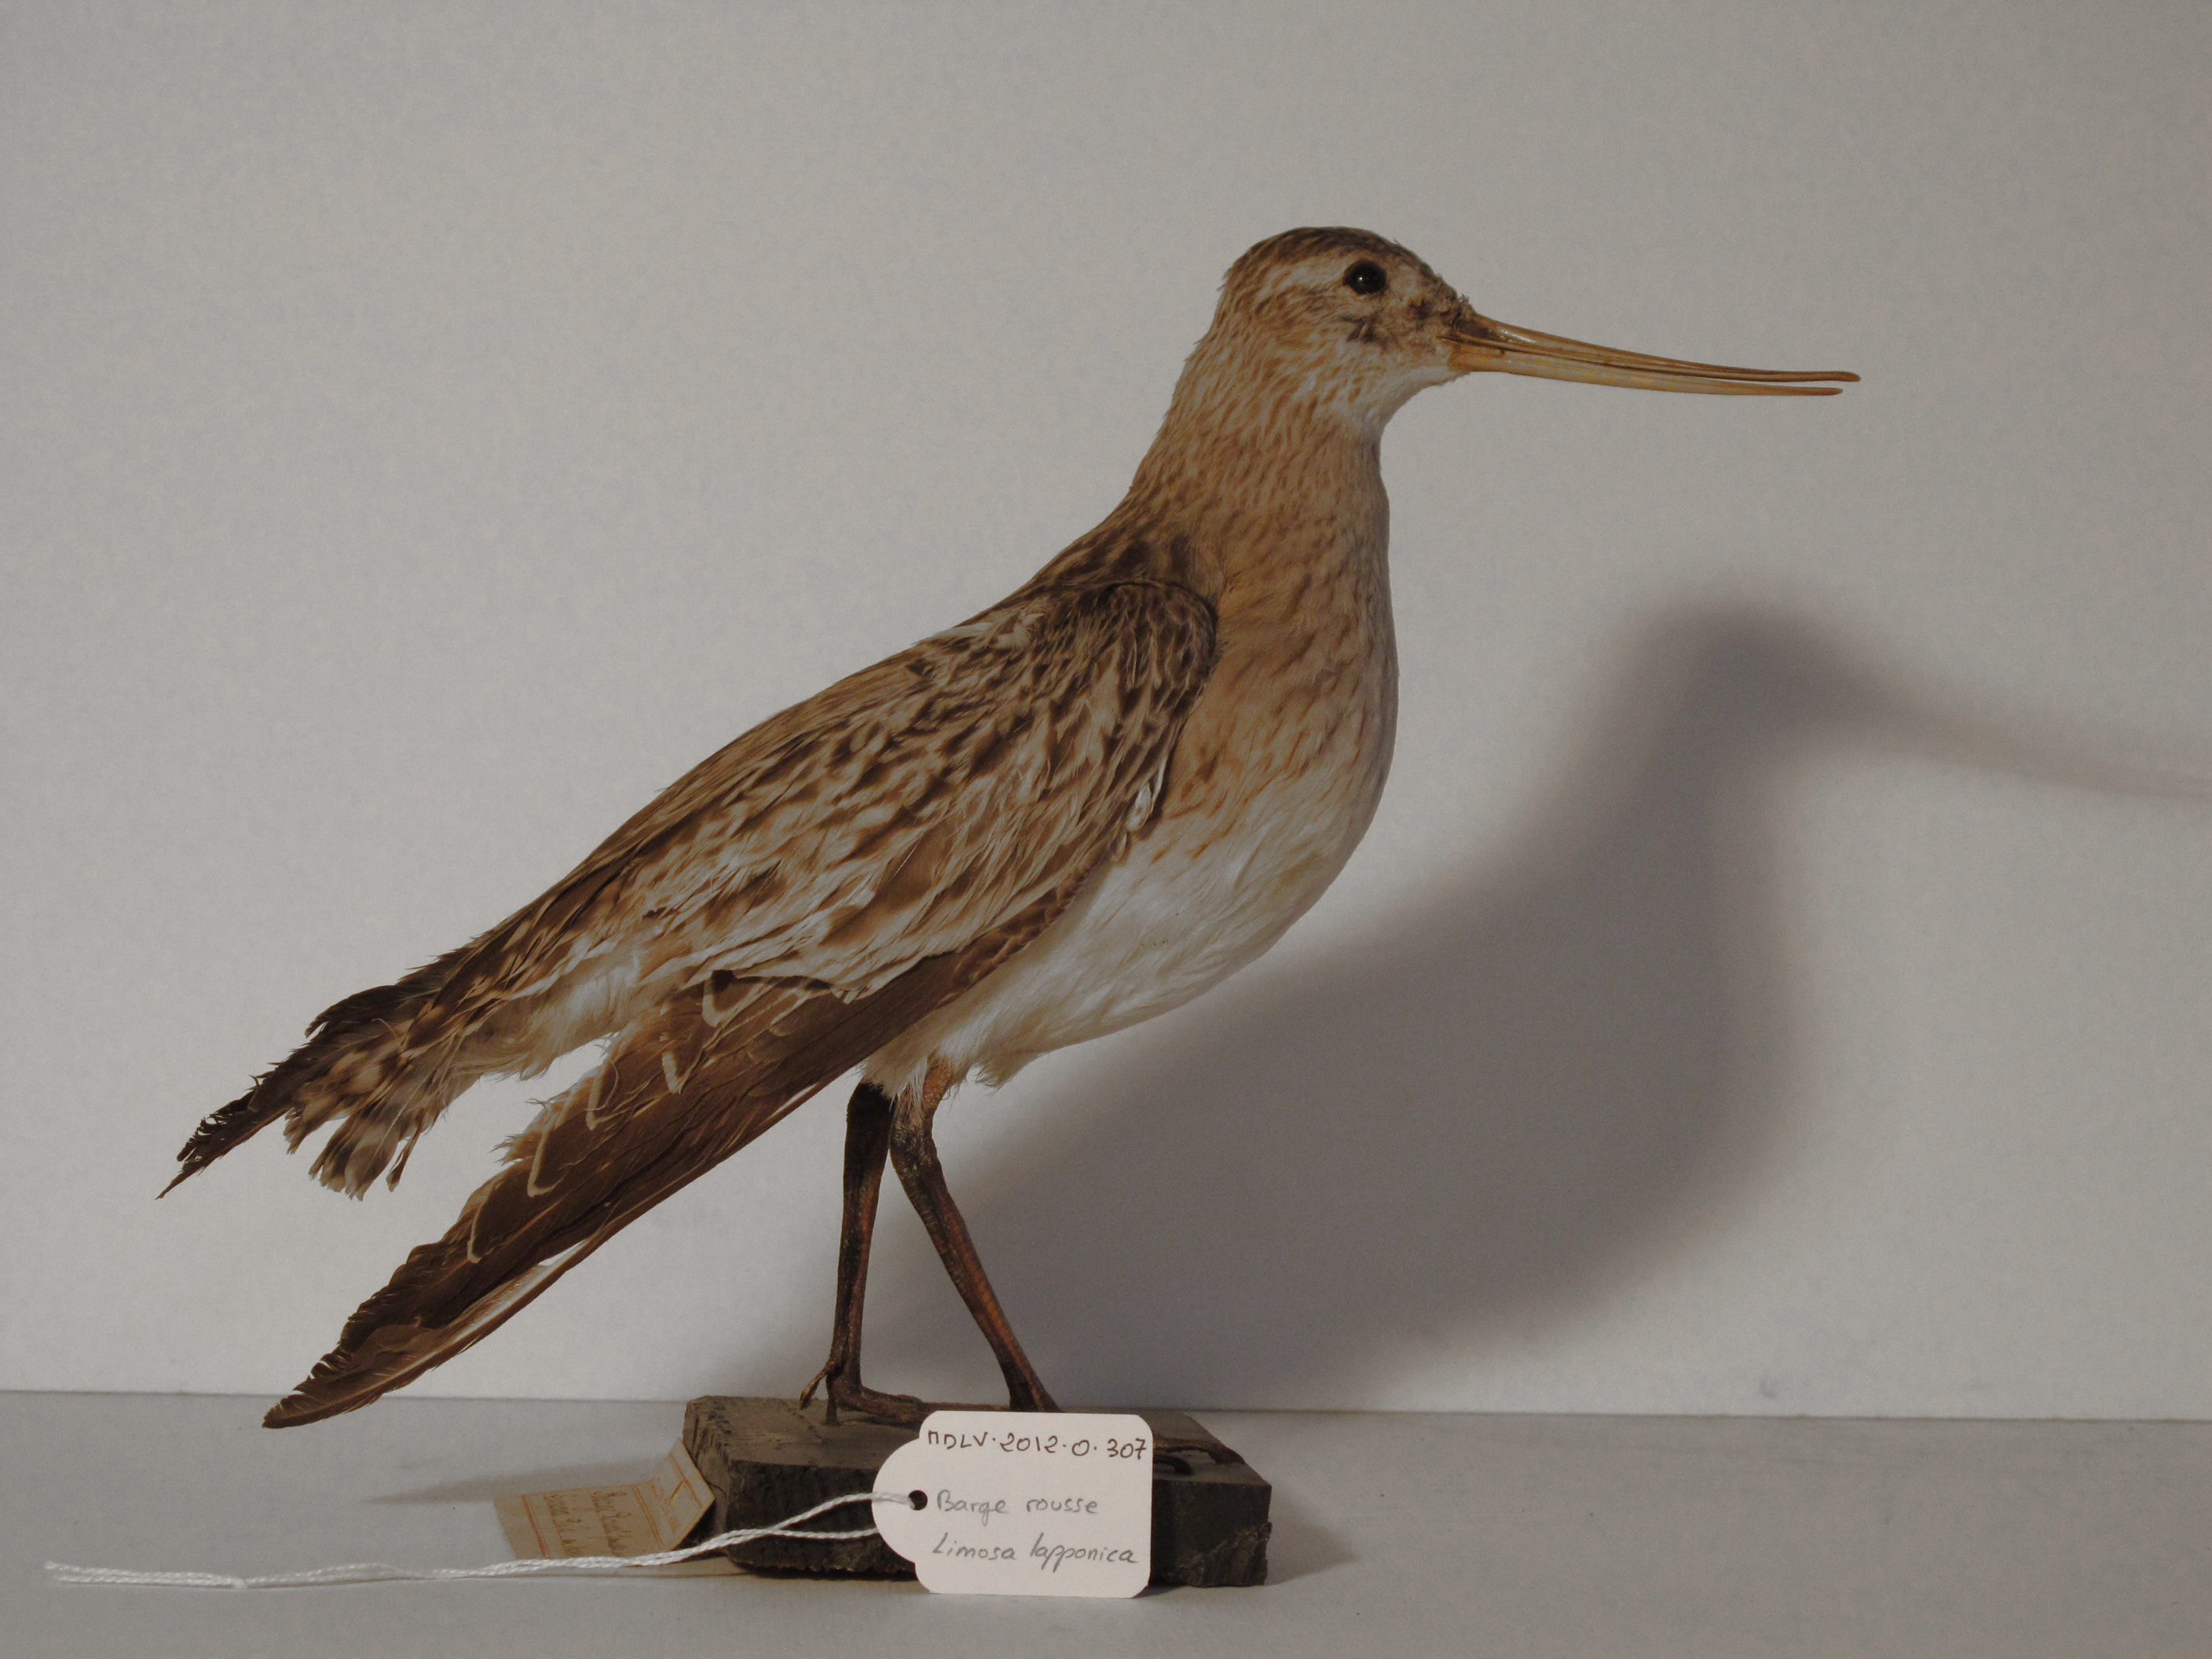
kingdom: Animalia
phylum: Chordata
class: Aves
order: Charadriiformes
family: Scolopacidae
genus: Limosa
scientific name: Limosa lapponica
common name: Bar-tailed Godwit
